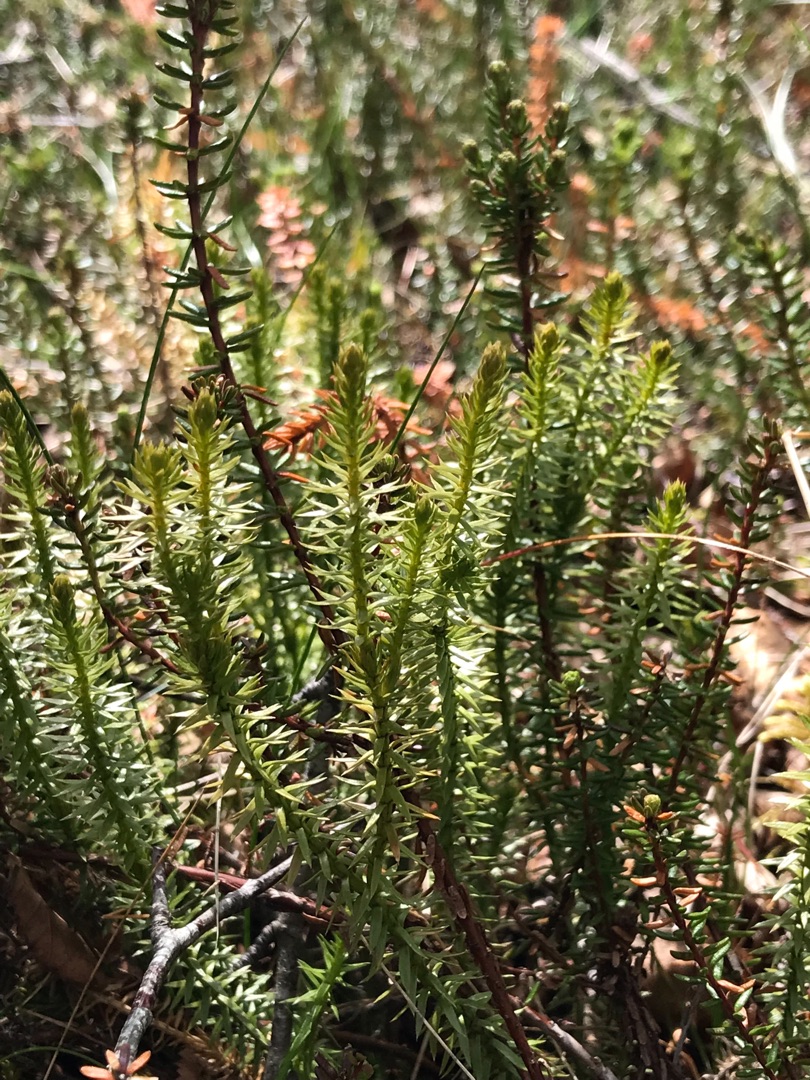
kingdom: Plantae
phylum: Tracheophyta
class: Lycopodiopsida
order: Lycopodiales
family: Lycopodiaceae
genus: Spinulum
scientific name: Spinulum annotinum
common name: Femradet ulvefod
